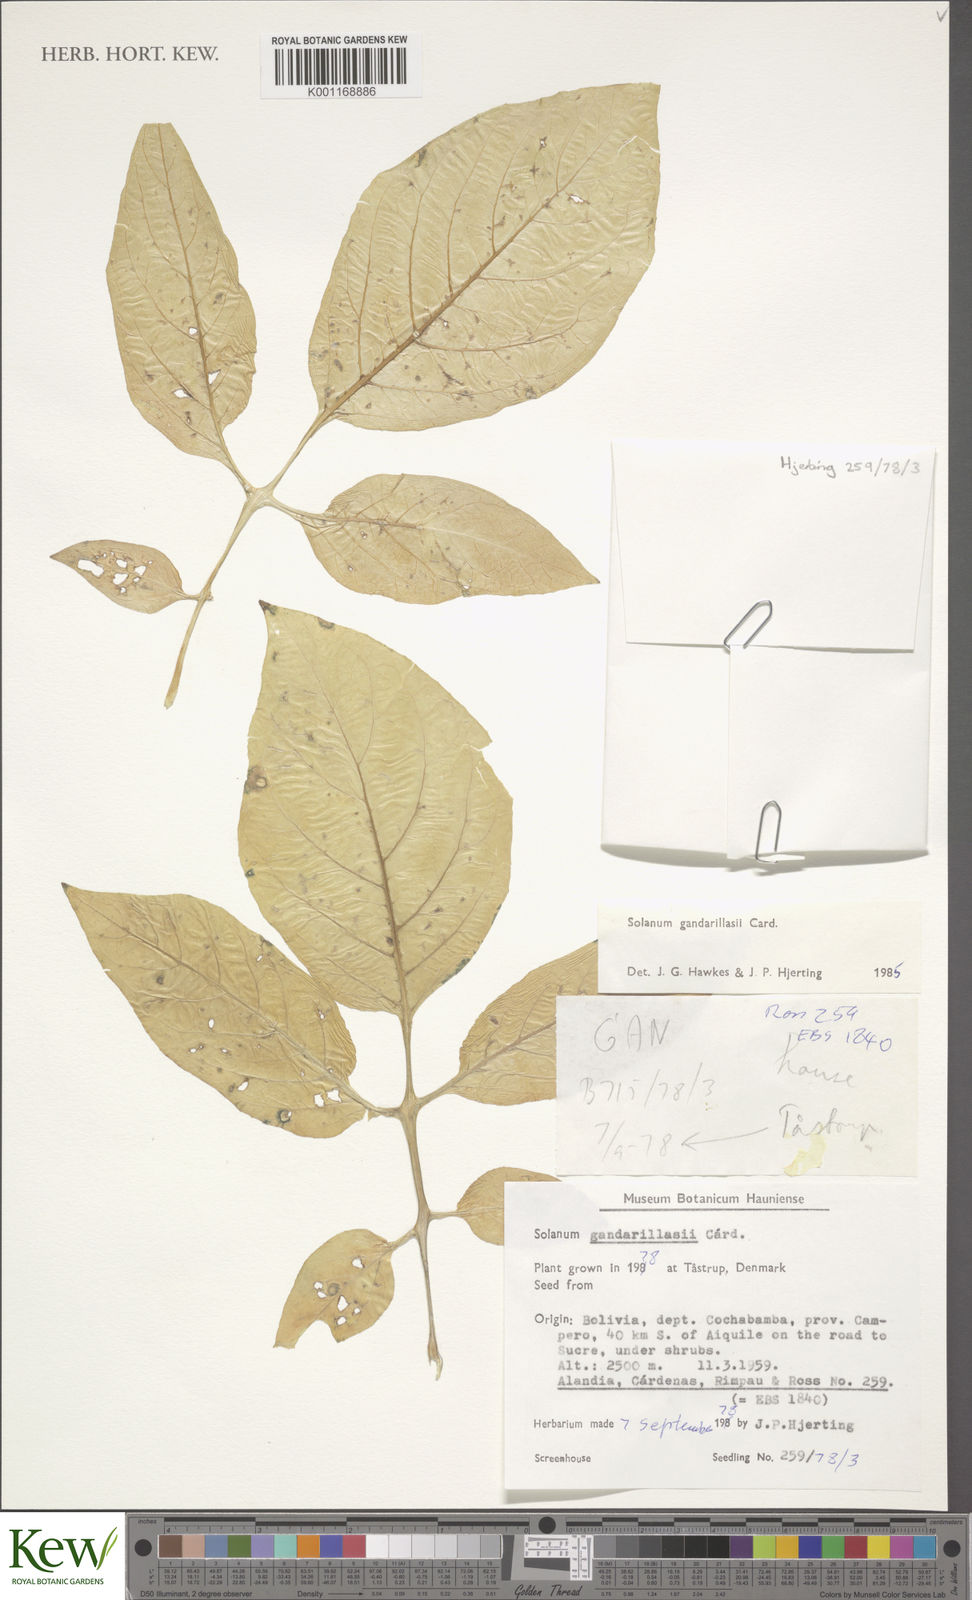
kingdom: Plantae
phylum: Tracheophyta
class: Magnoliopsida
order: Solanales
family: Solanaceae
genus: Solanum
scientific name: Solanum
